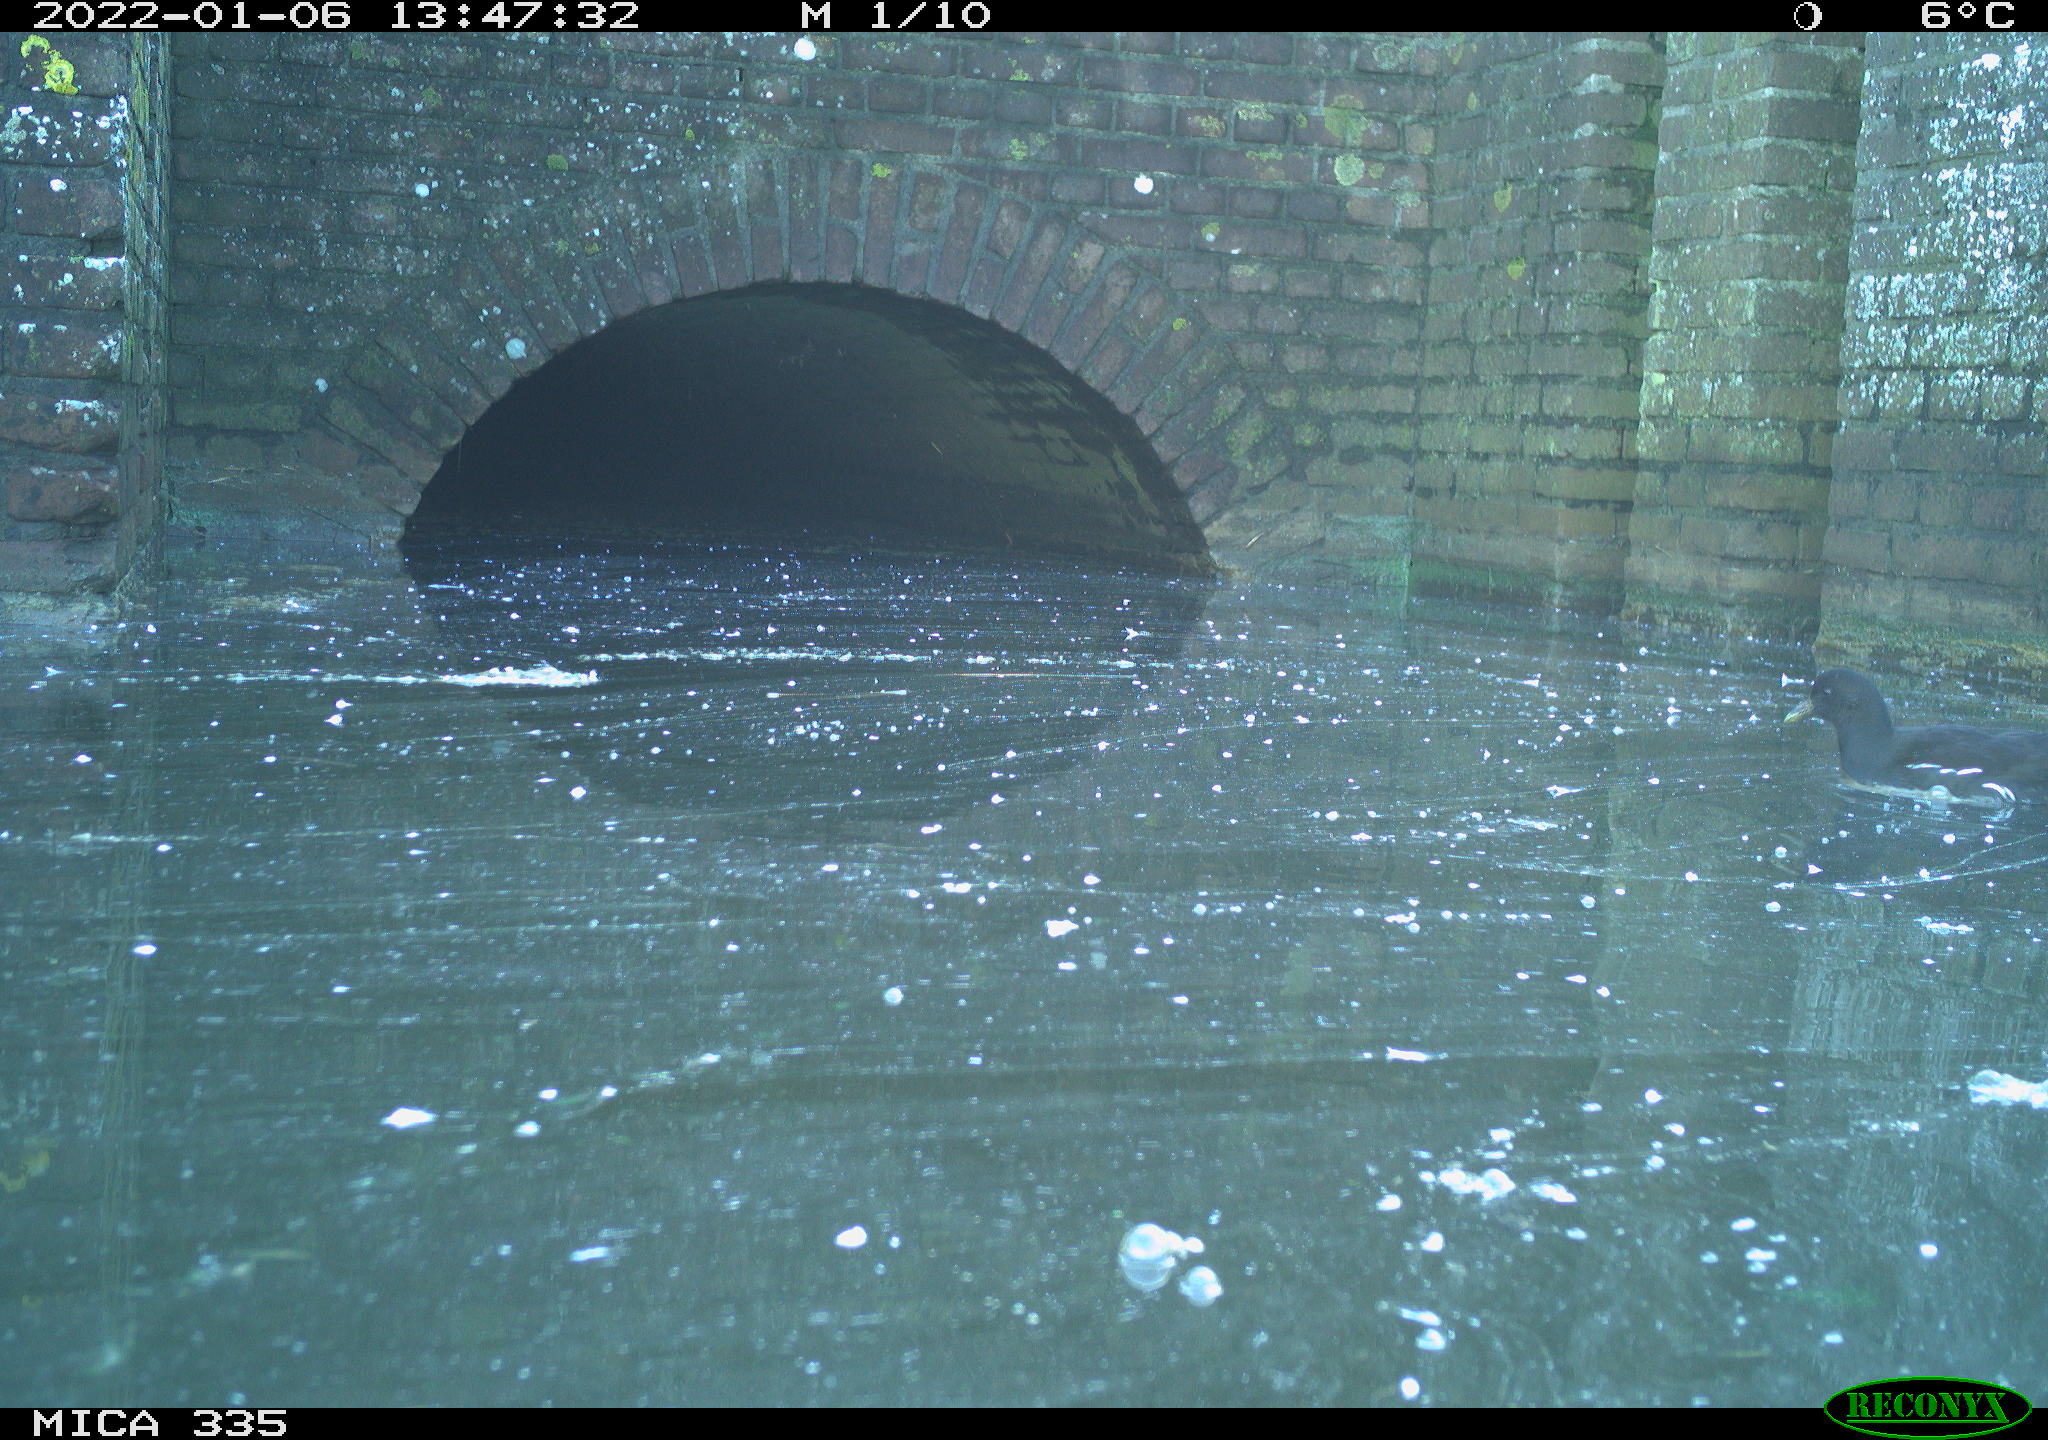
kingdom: Animalia
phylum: Chordata
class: Aves
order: Gruiformes
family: Rallidae
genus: Gallinula
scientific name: Gallinula chloropus
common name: Common moorhen
